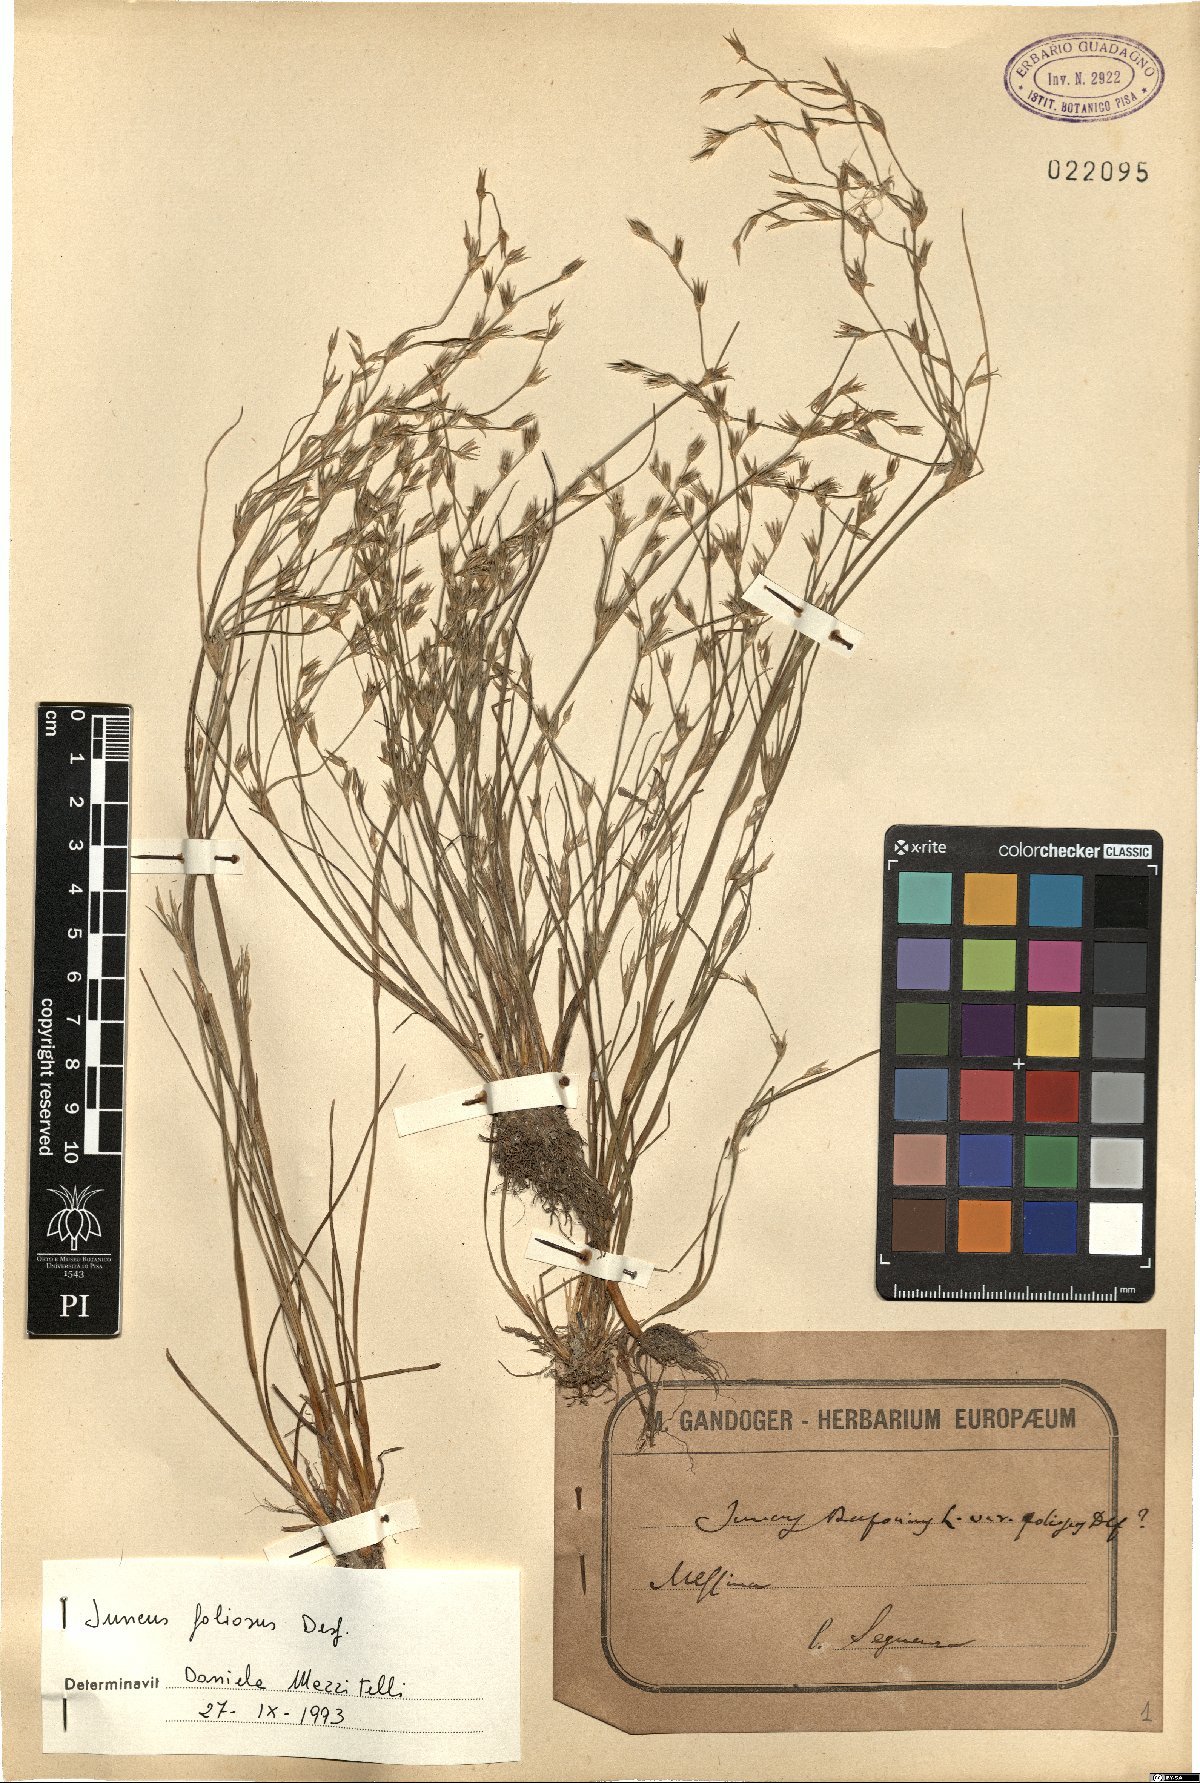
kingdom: Plantae
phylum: Tracheophyta
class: Liliopsida
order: Poales
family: Juncaceae
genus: Juncus
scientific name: Juncus foliosus
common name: Leafy rush
